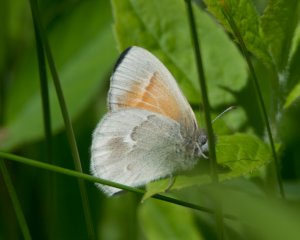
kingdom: Animalia
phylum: Arthropoda
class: Insecta
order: Lepidoptera
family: Nymphalidae
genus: Coenonympha
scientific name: Coenonympha tullia
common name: Large Heath
